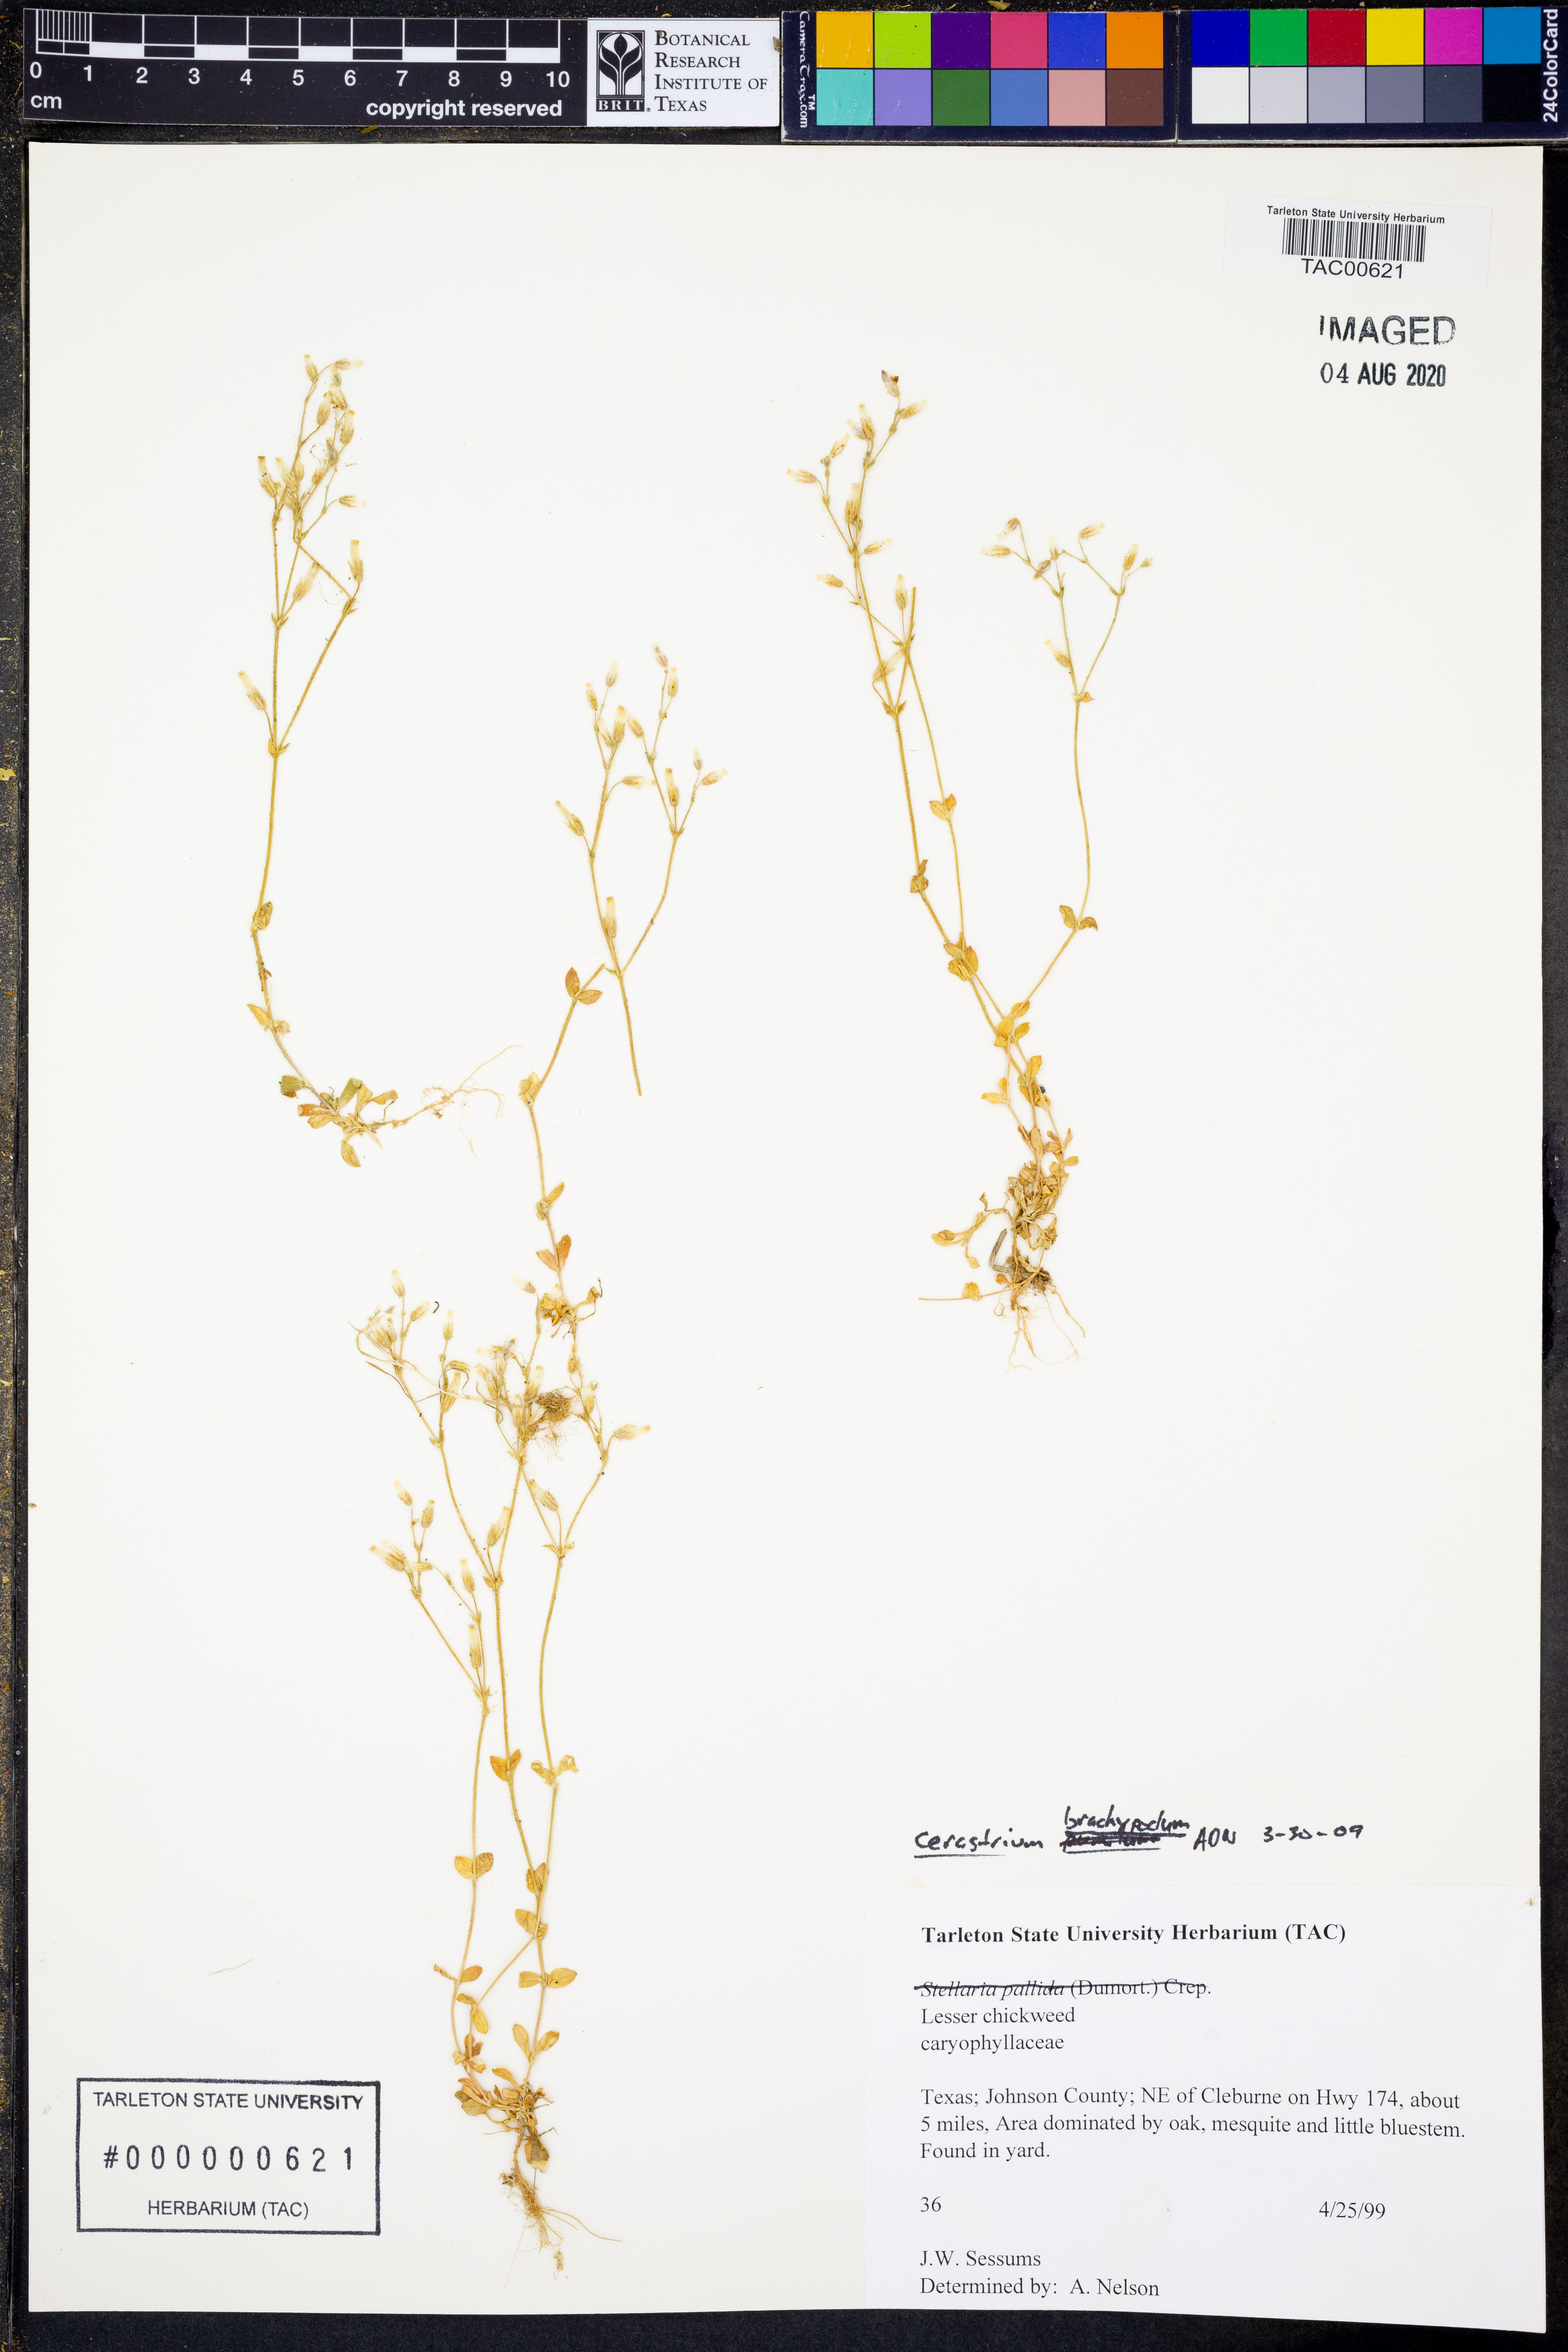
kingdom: Plantae
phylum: Tracheophyta
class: Magnoliopsida
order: Caryophyllales
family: Caryophyllaceae
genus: Cerastium
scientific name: Cerastium brachypodum
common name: Short-pedicelled nodding chickweed
